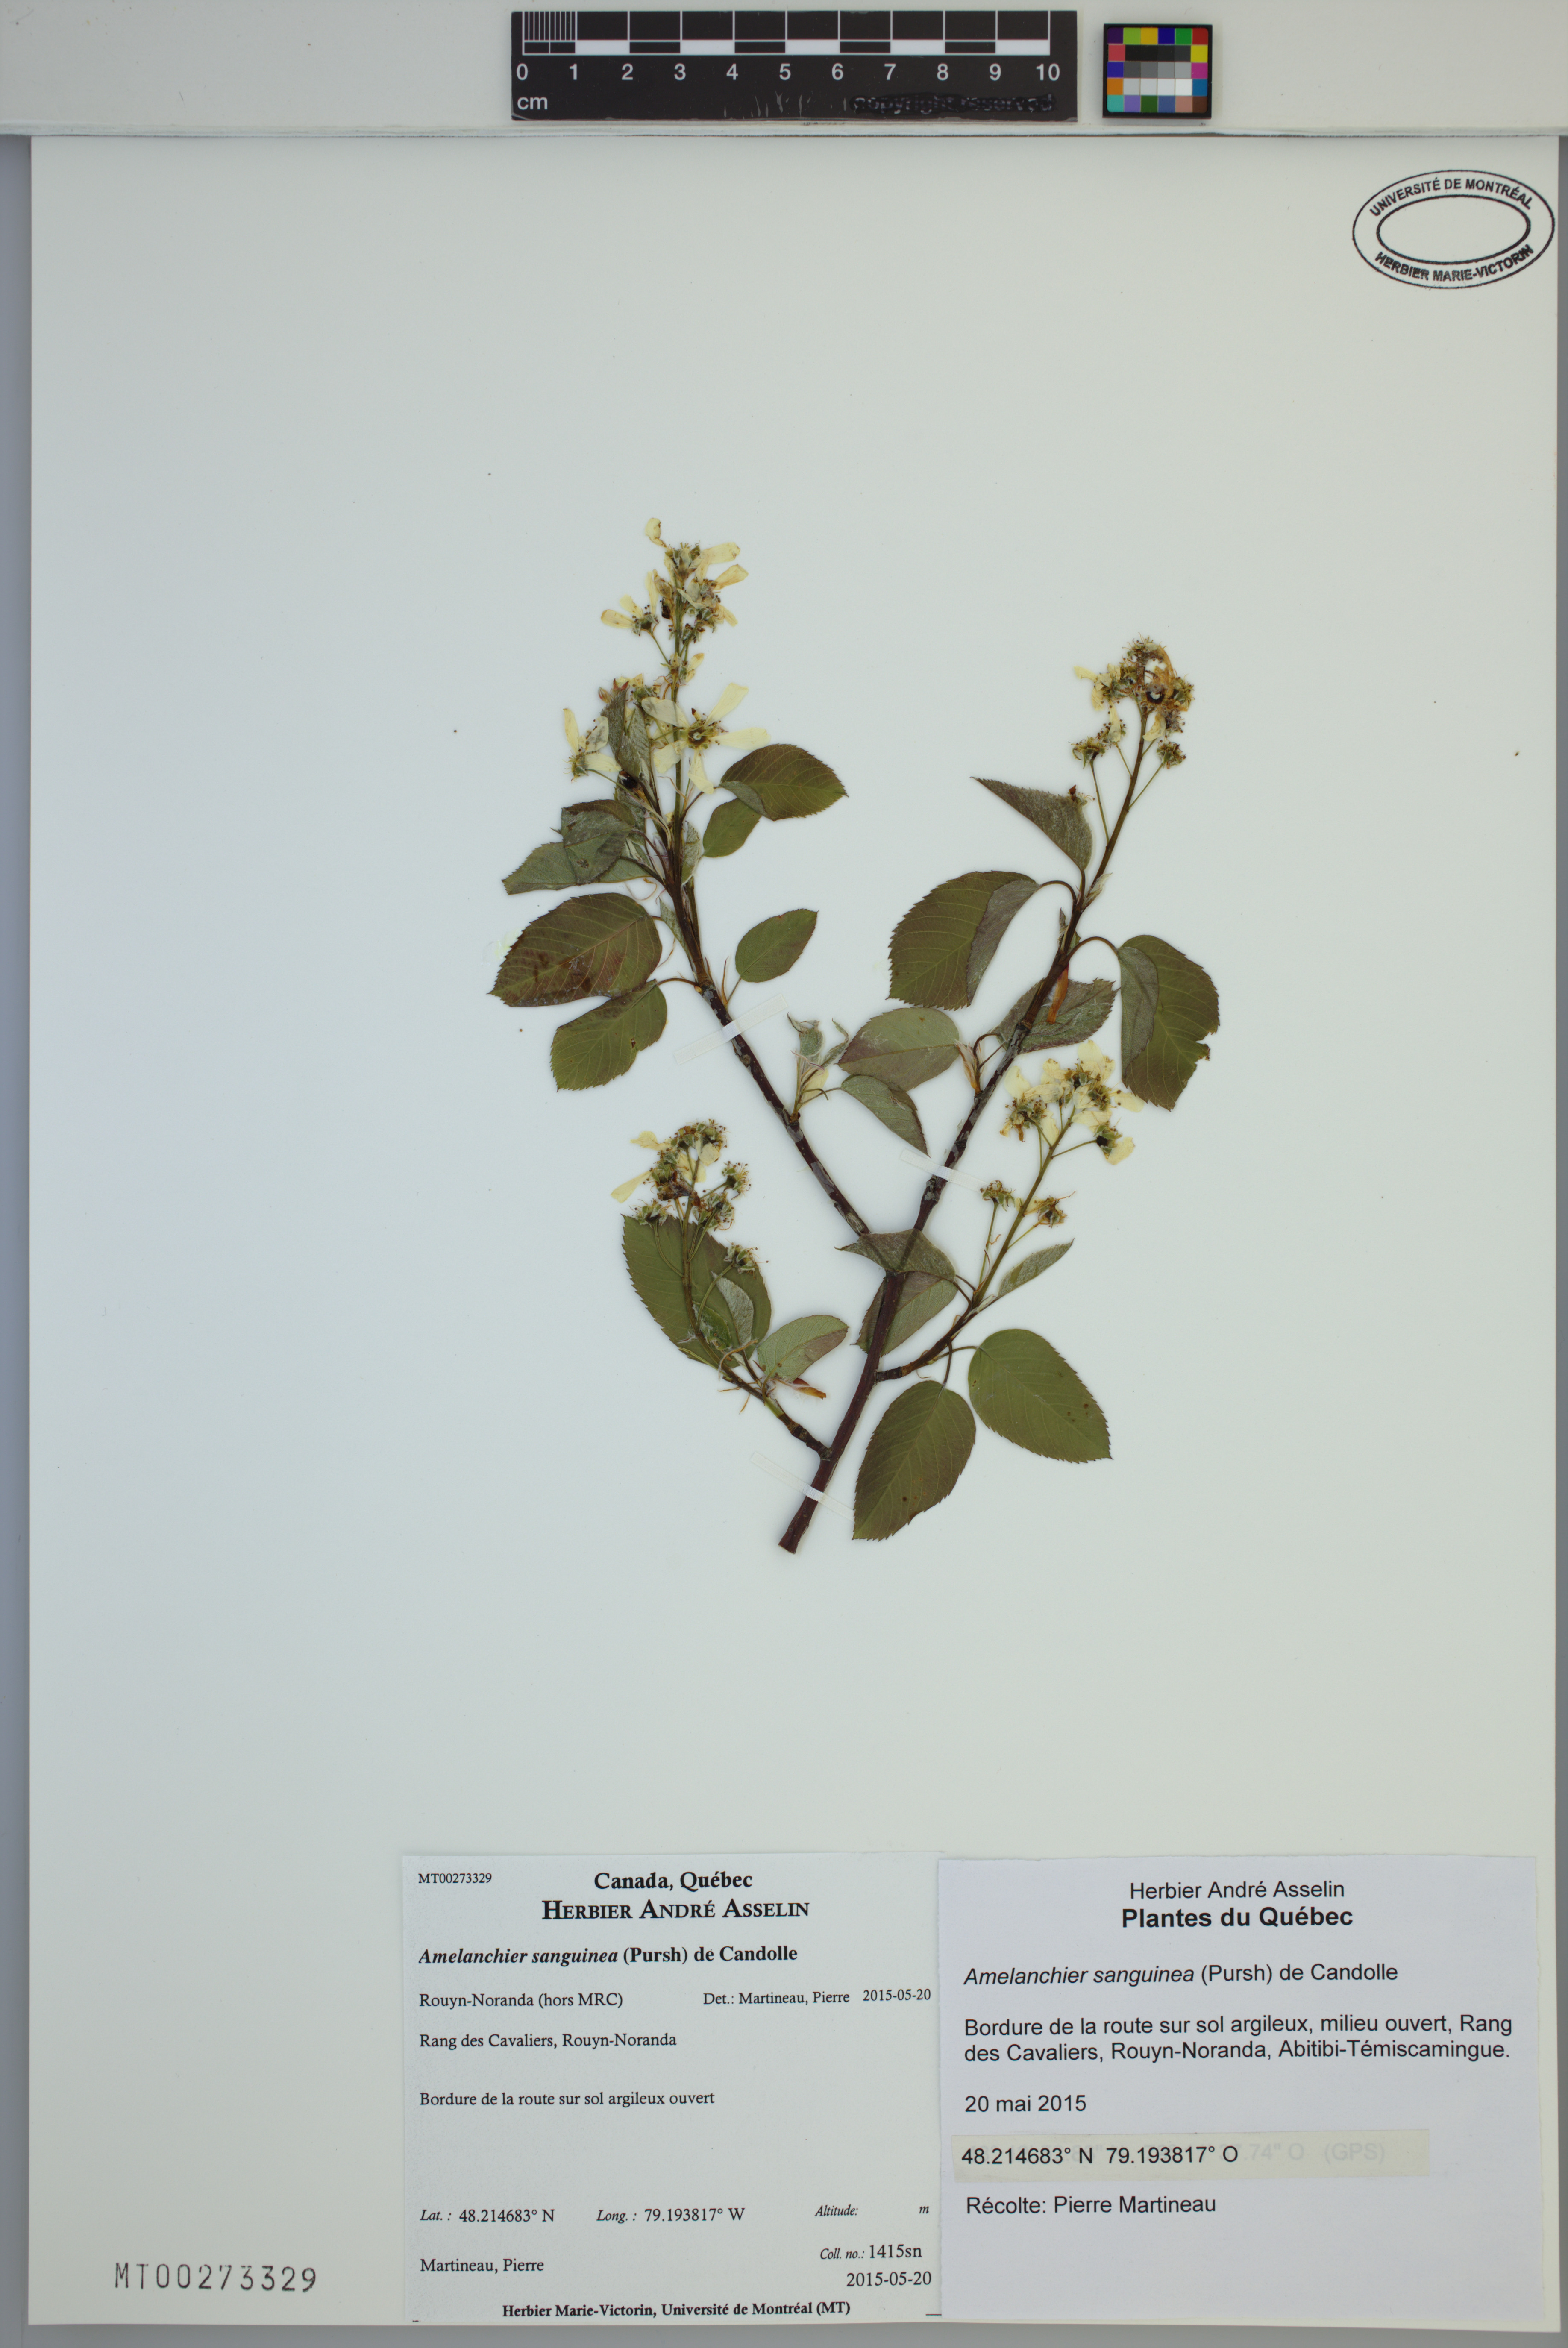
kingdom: Plantae
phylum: Tracheophyta
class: Magnoliopsida
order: Rosales
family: Rosaceae
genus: Amelanchier
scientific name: Amelanchier sanguinea
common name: Huron serviceberry
